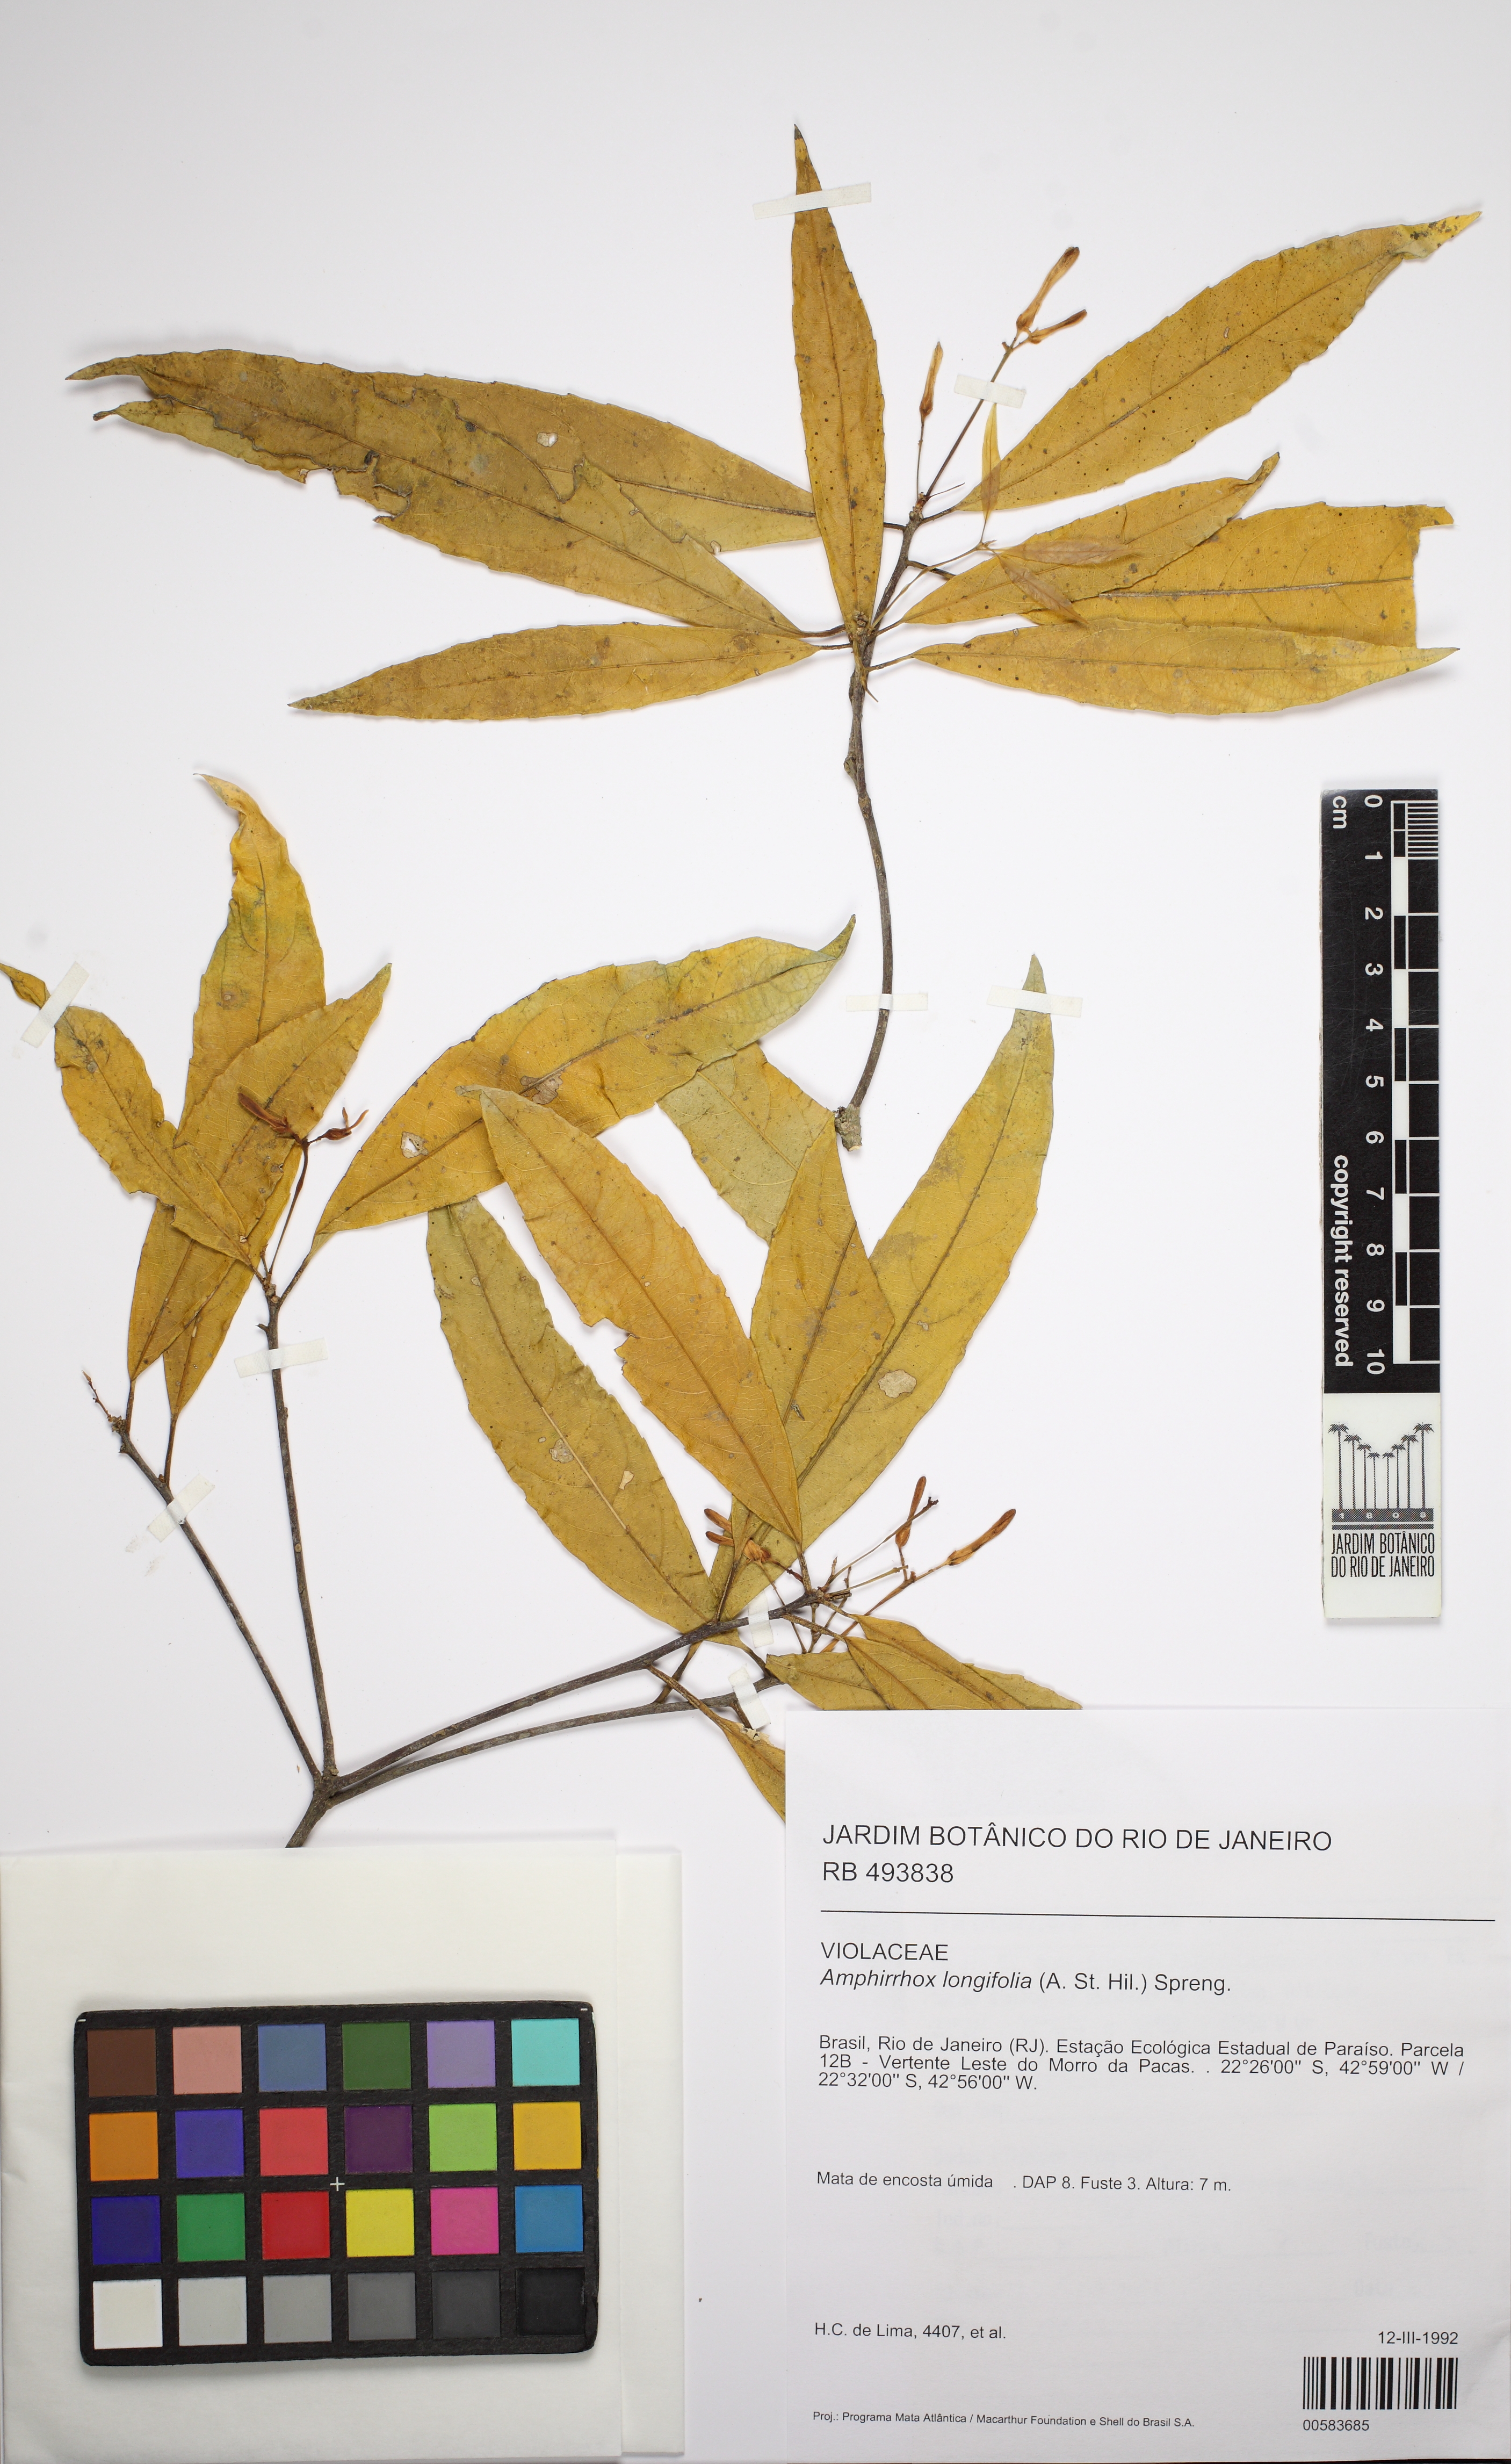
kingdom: Plantae
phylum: Tracheophyta
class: Magnoliopsida
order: Malpighiales
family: Violaceae
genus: Amphirrhox
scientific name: Amphirrhox longifolia
